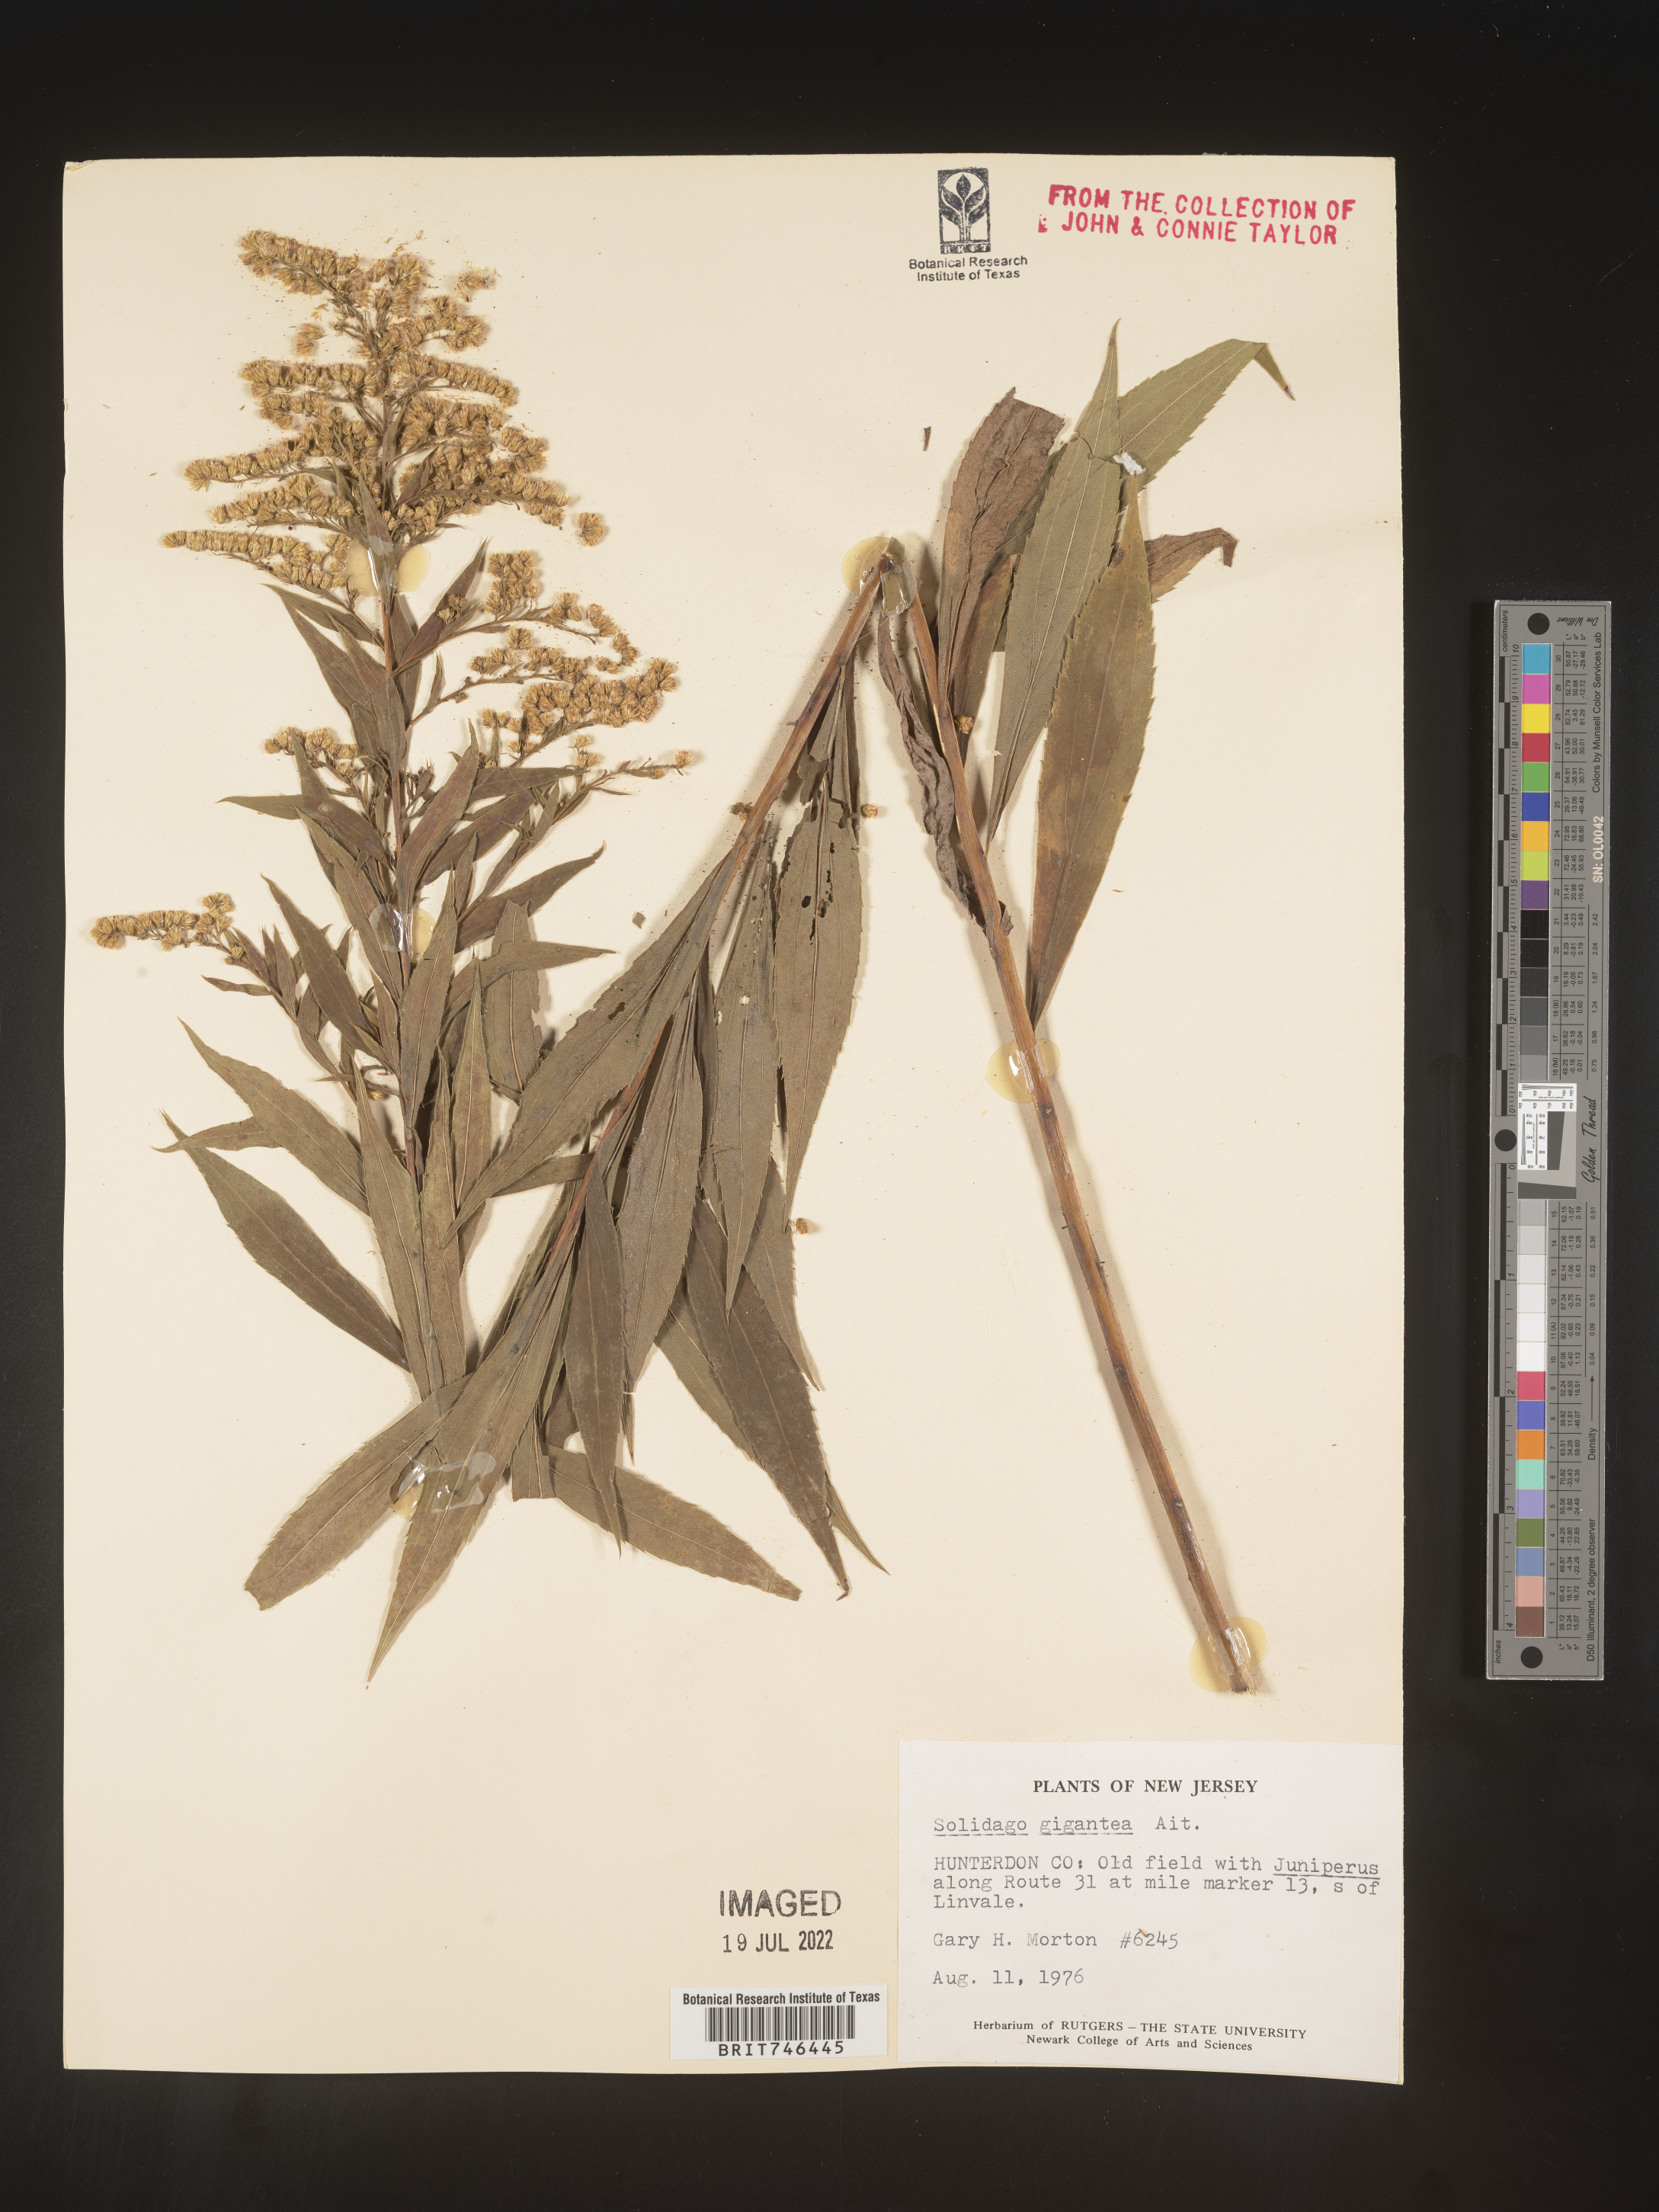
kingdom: Plantae
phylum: Tracheophyta
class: Magnoliopsida
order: Asterales
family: Asteraceae
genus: Solidago
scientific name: Solidago gigantea
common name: Giant goldenrod
